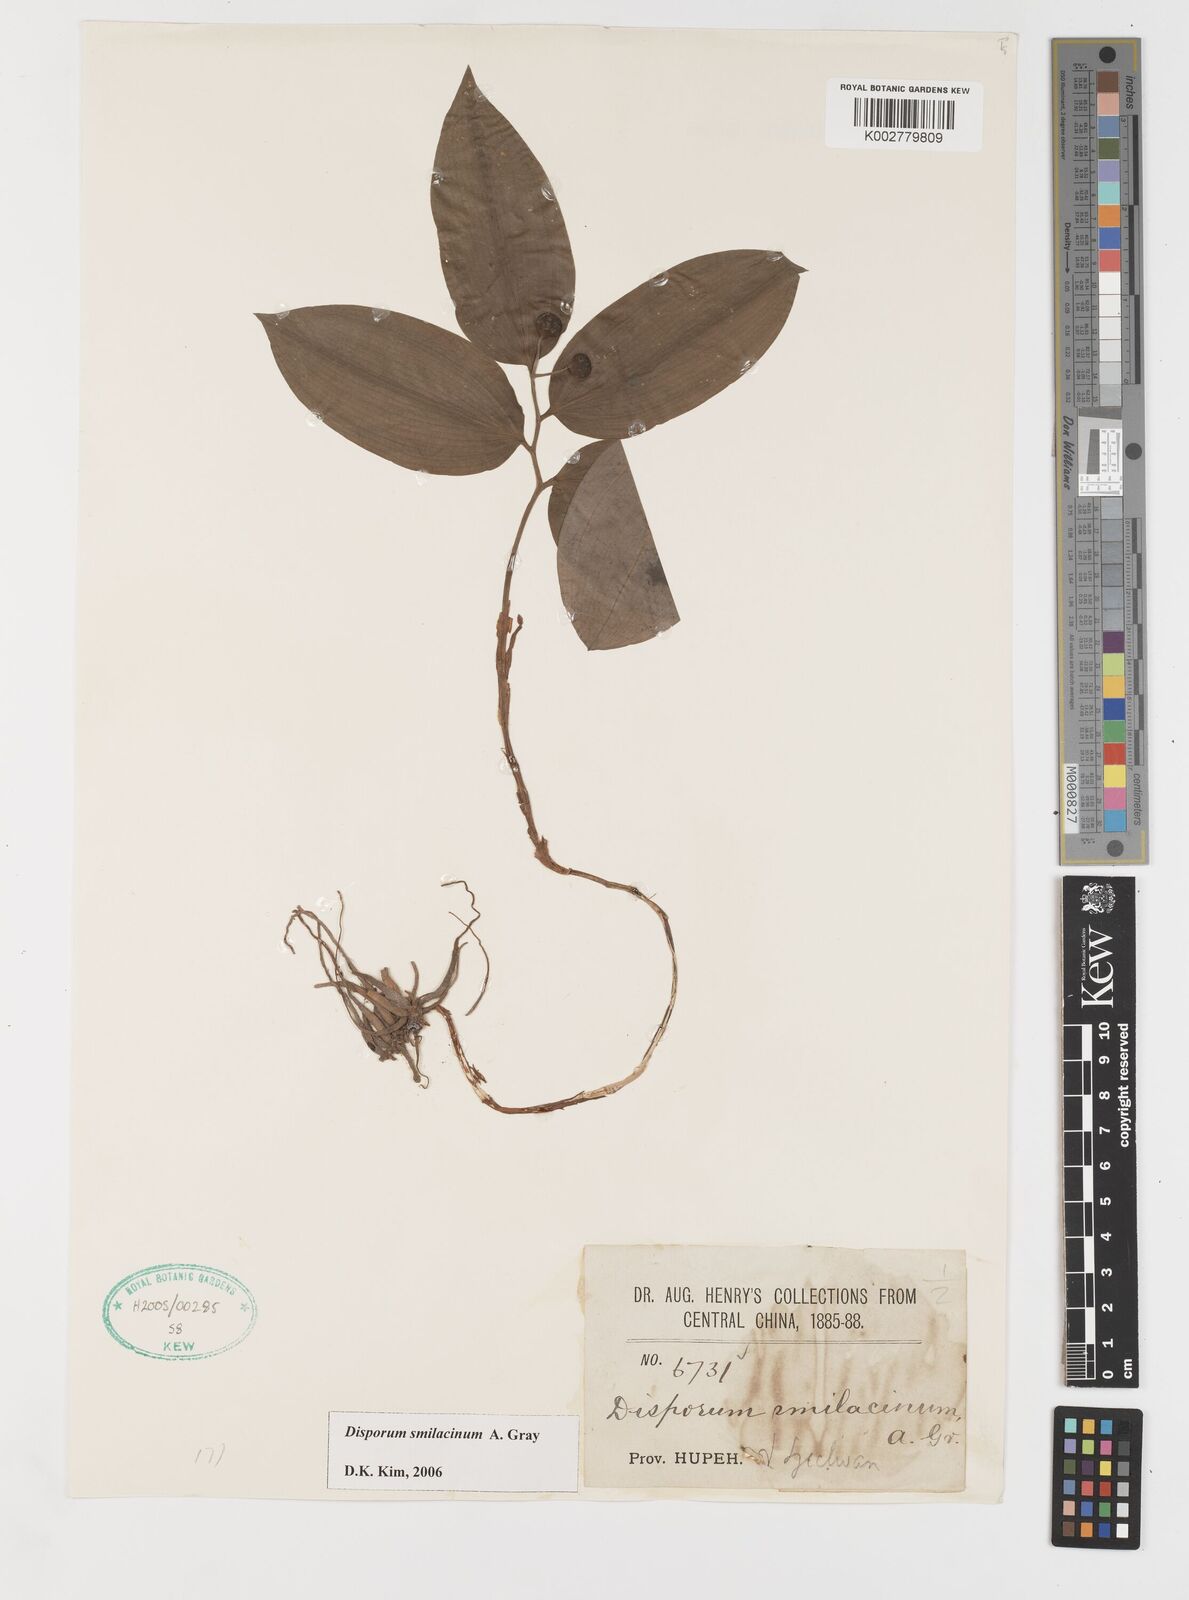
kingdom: Plantae
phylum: Tracheophyta
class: Liliopsida
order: Liliales
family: Colchicaceae
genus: Disporum
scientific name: Disporum smilacinum
